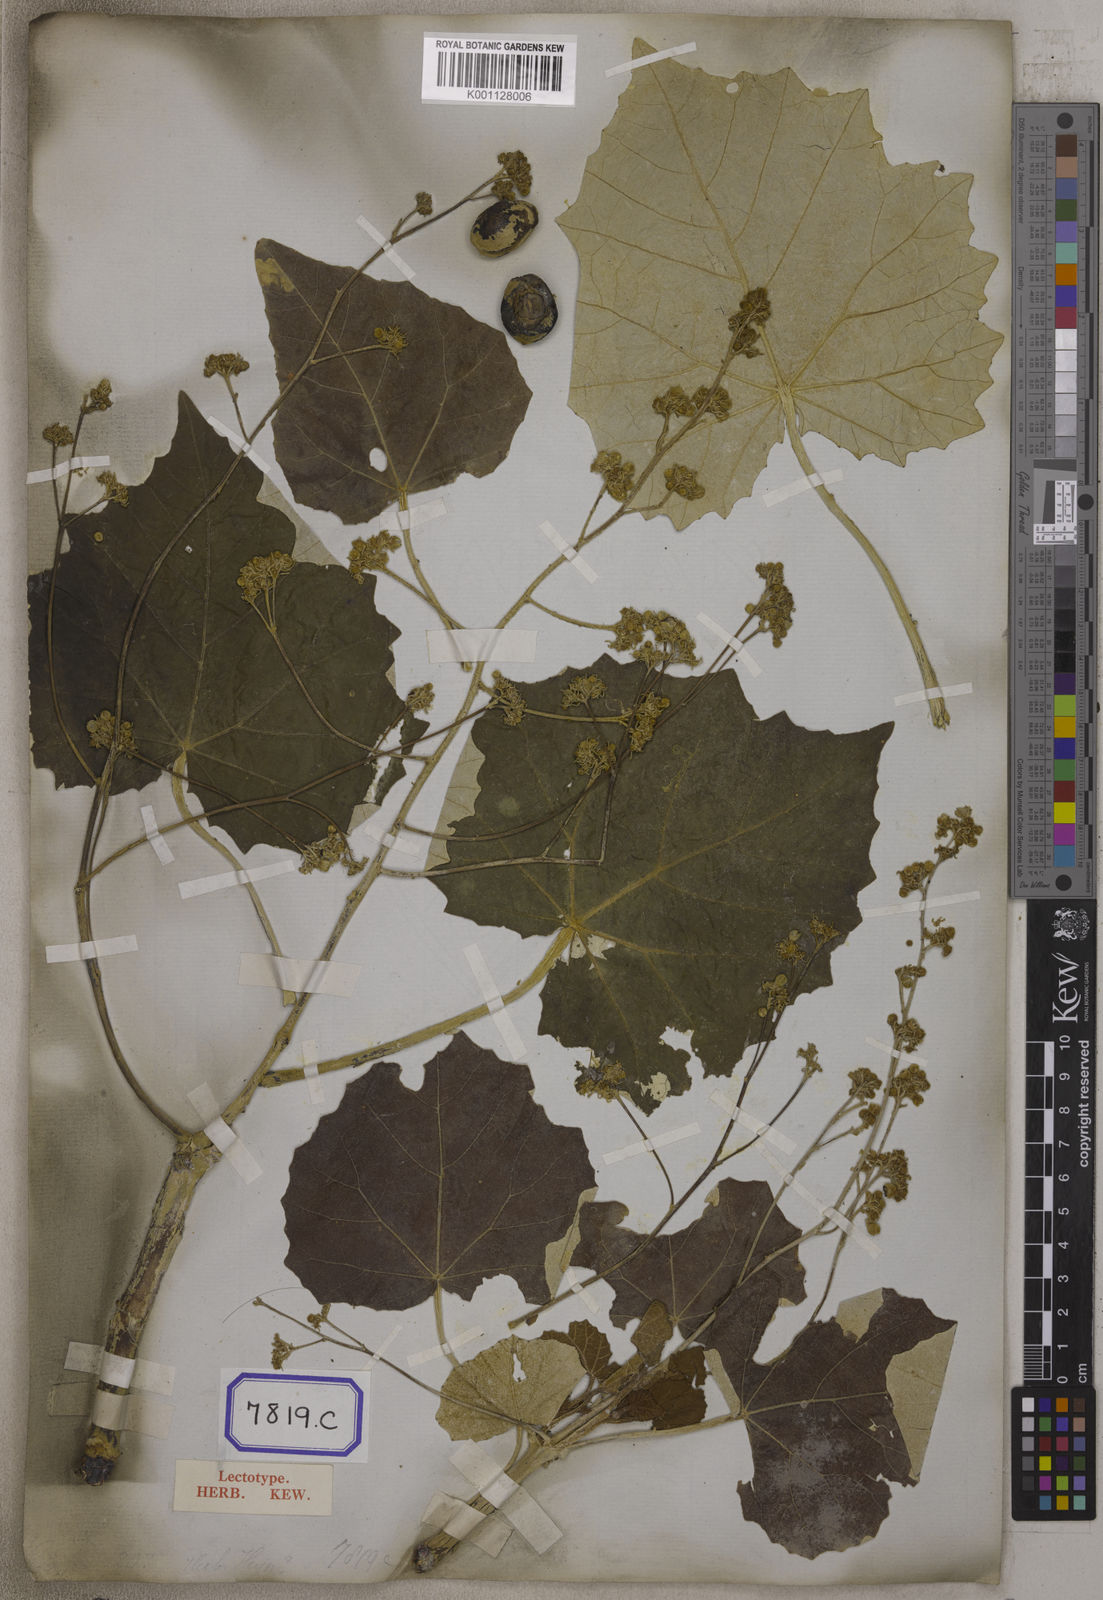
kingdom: Plantae
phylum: Tracheophyta
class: Magnoliopsida
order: Malpighiales
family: Euphorbiaceae
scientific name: Euphorbiaceae
